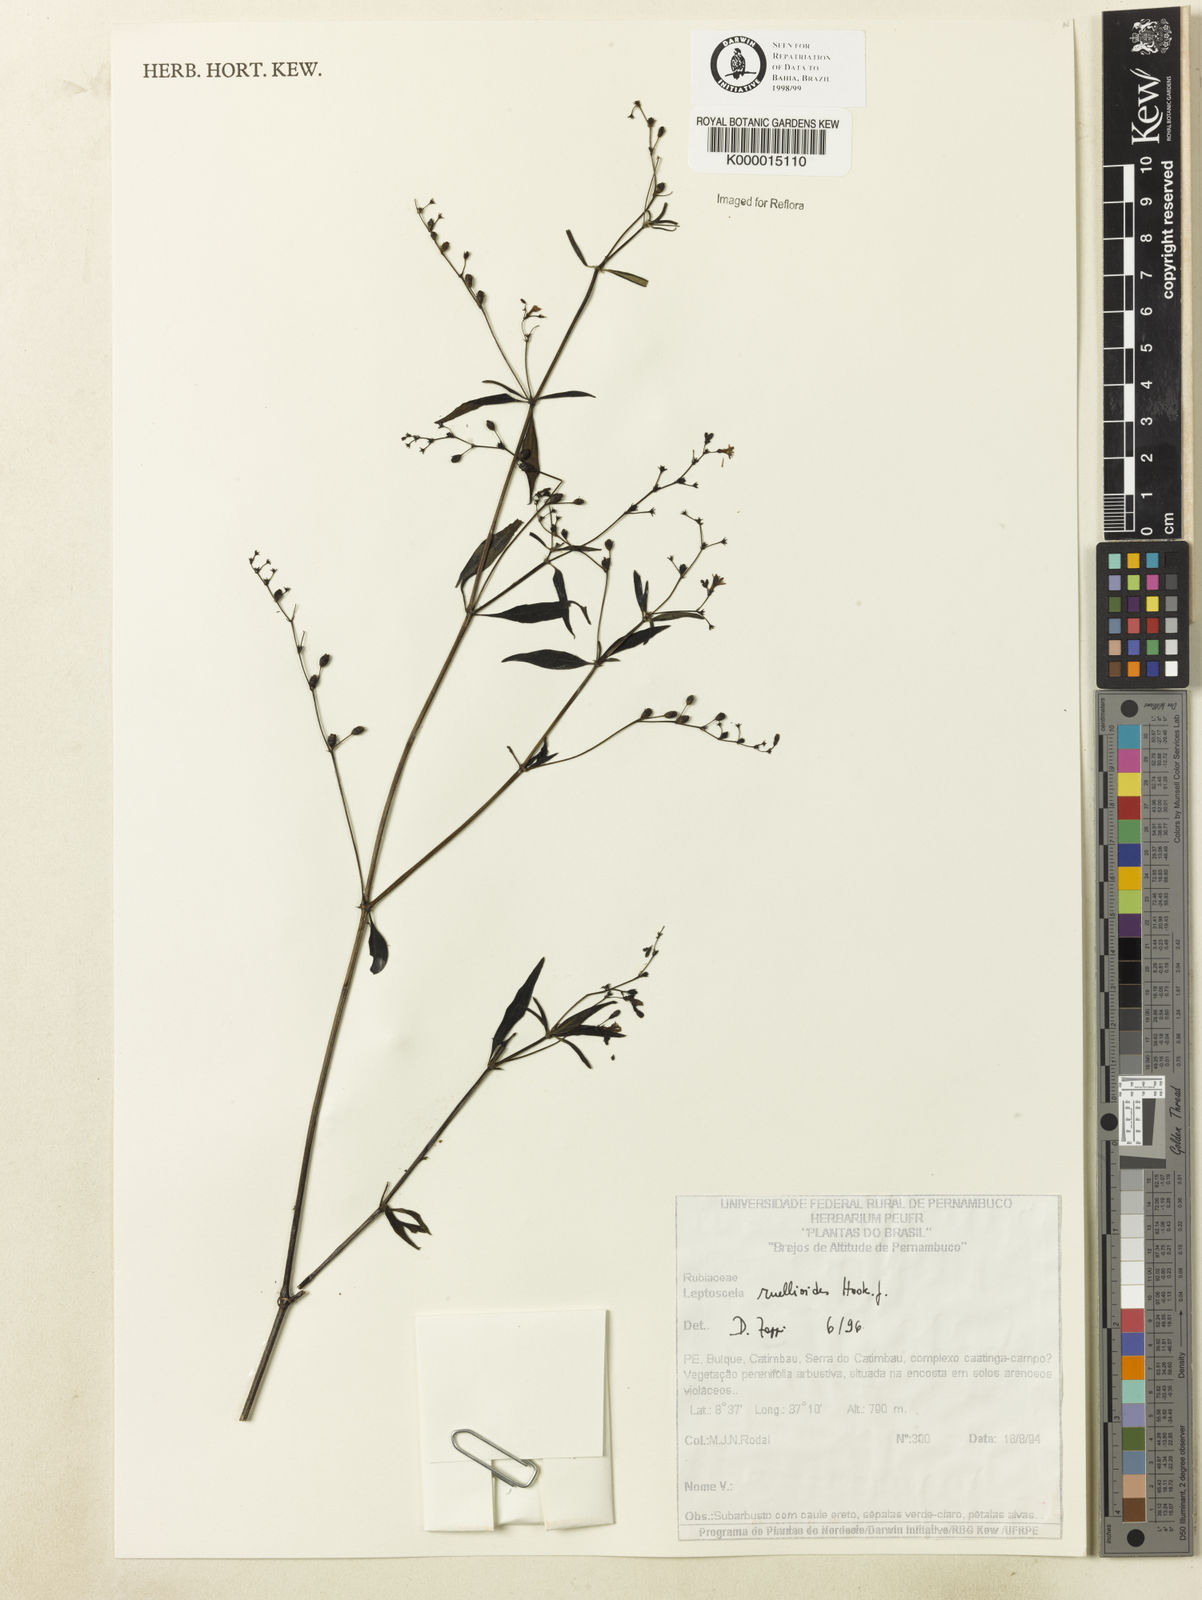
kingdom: Plantae
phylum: Tracheophyta
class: Magnoliopsida
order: Gentianales
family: Rubiaceae
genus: Leptoscela
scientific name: Leptoscela
